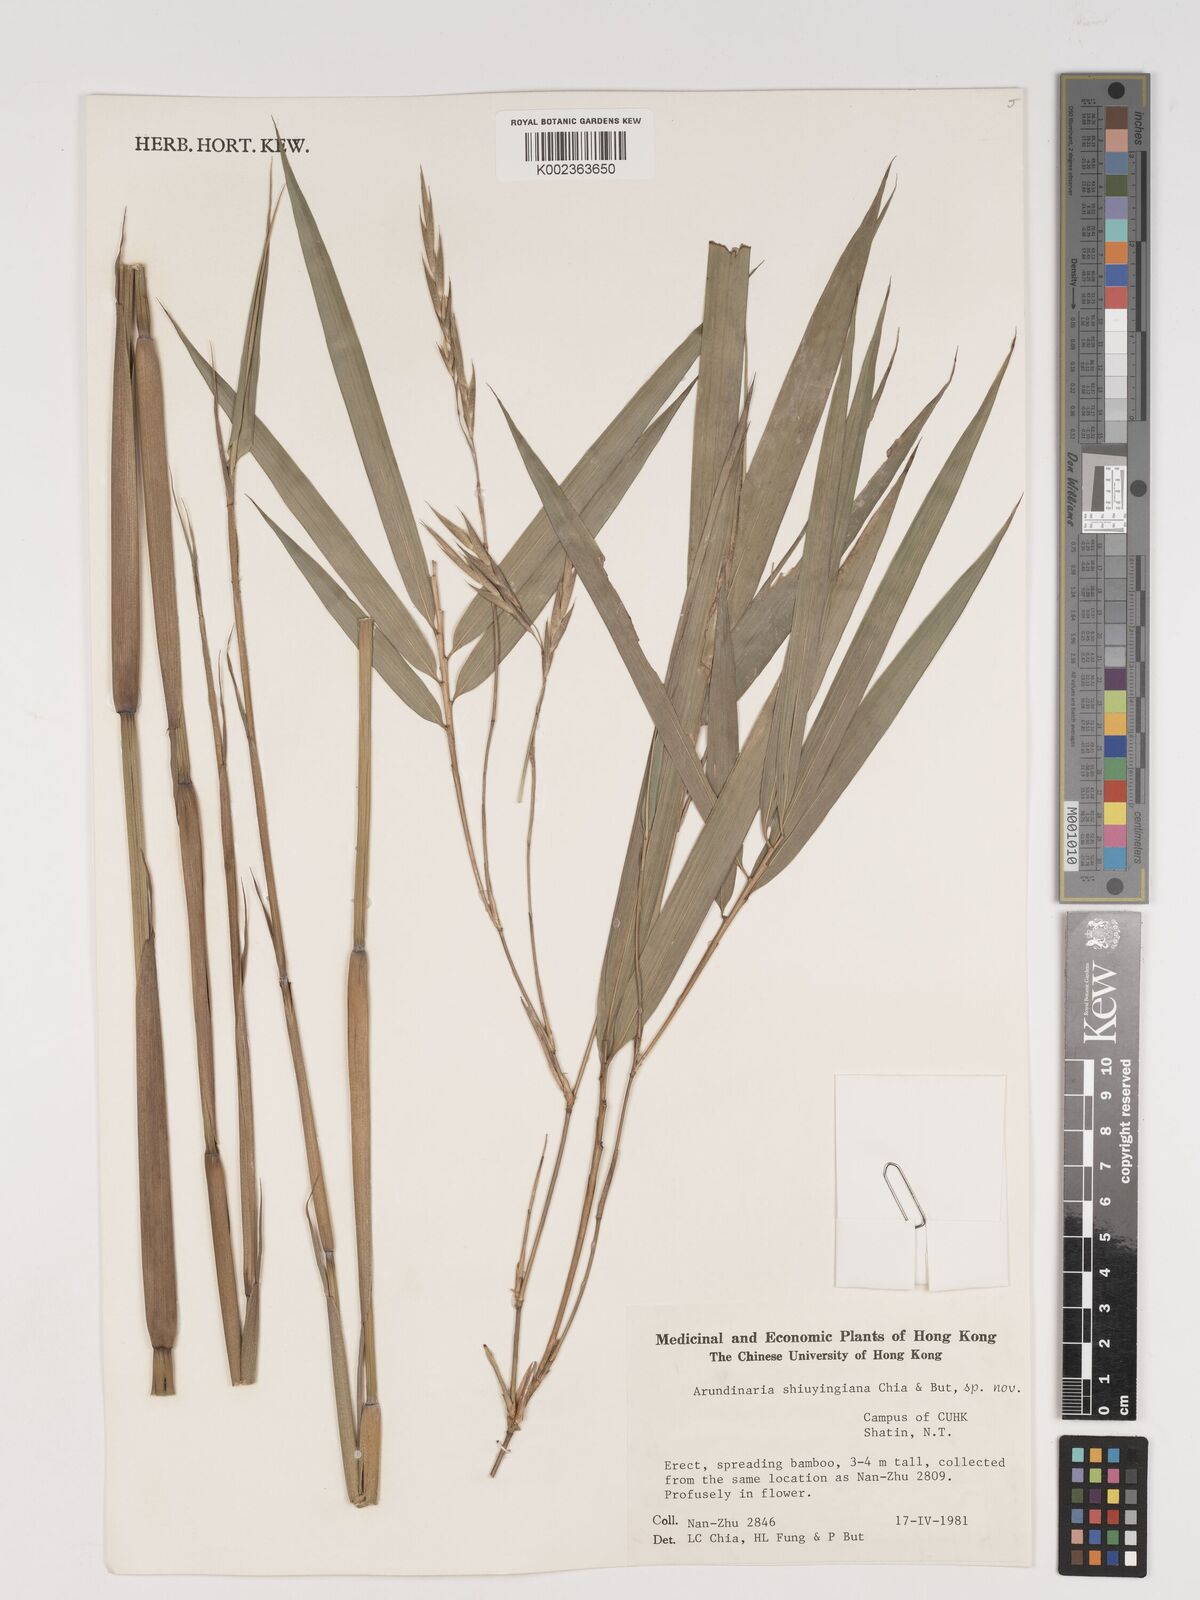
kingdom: Plantae
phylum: Tracheophyta
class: Liliopsida
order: Poales
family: Poaceae
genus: Oligostachyum
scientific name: Oligostachyum shiuyingianum
